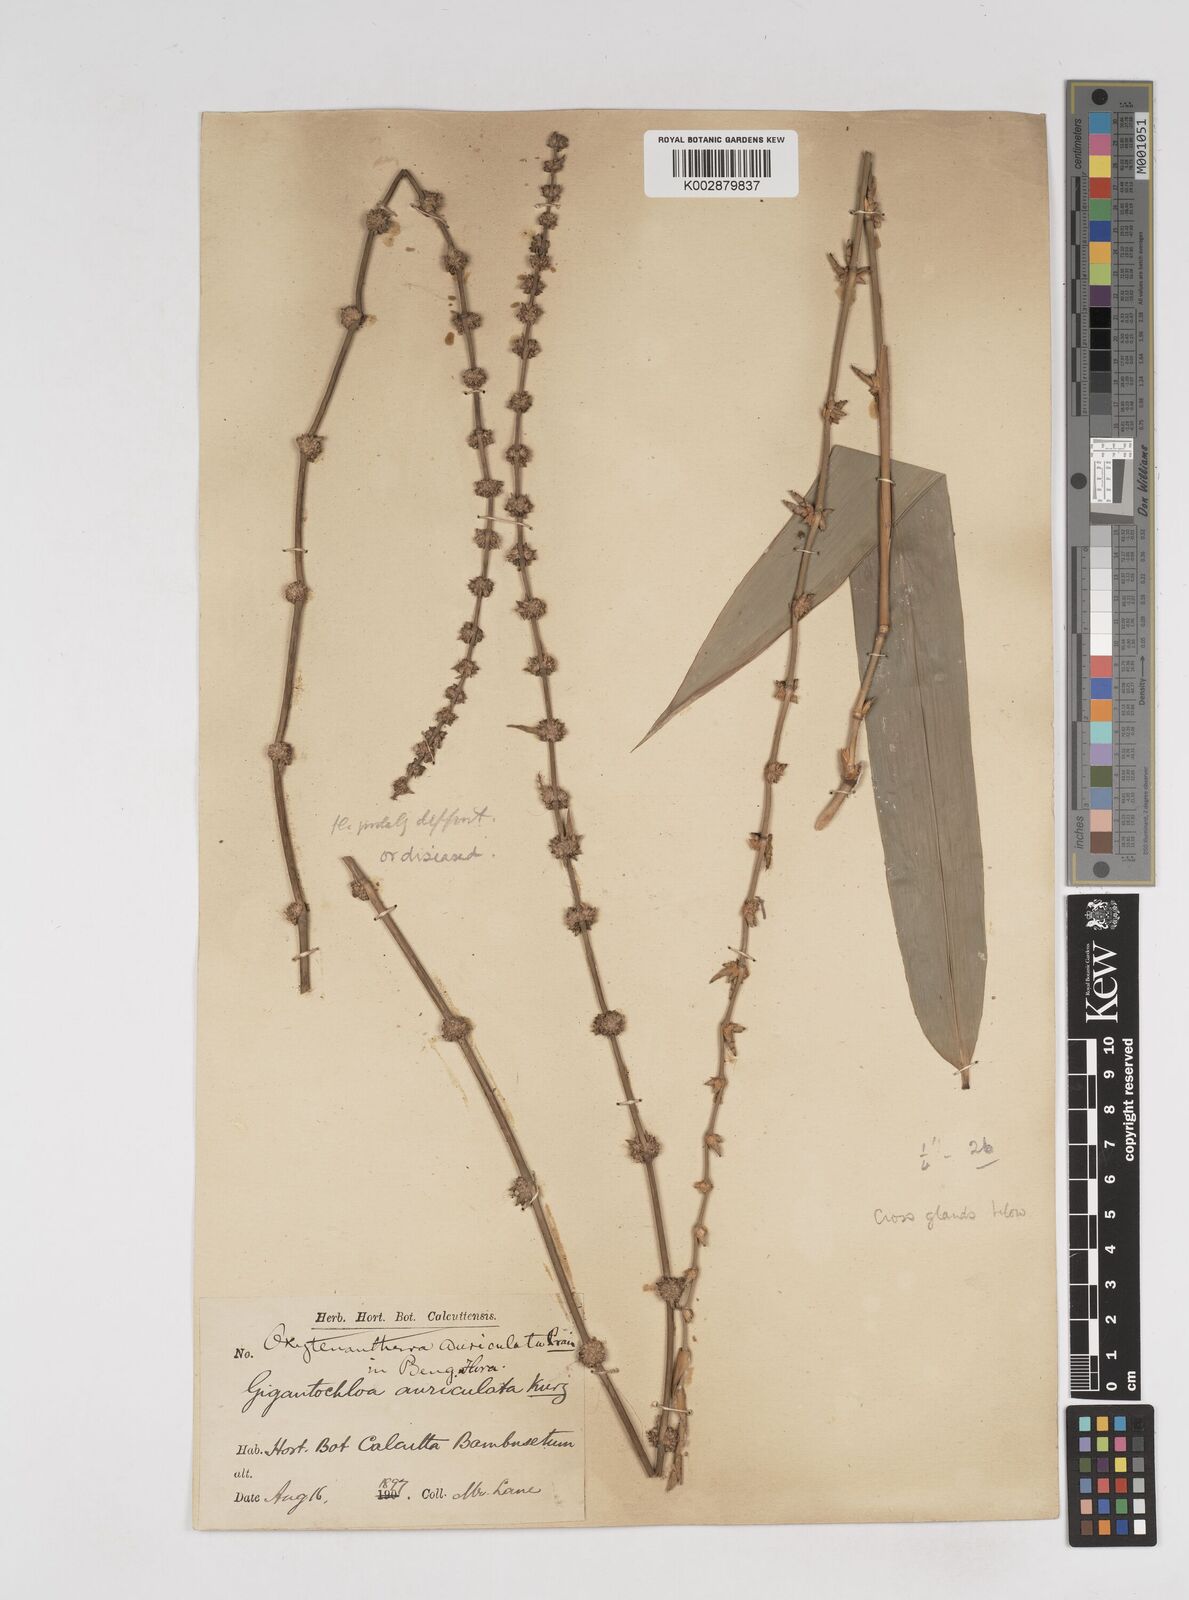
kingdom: Plantae
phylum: Tracheophyta
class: Liliopsida
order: Poales
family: Poaceae
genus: Gigantochloa
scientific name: Gigantochloa nigrociliata
